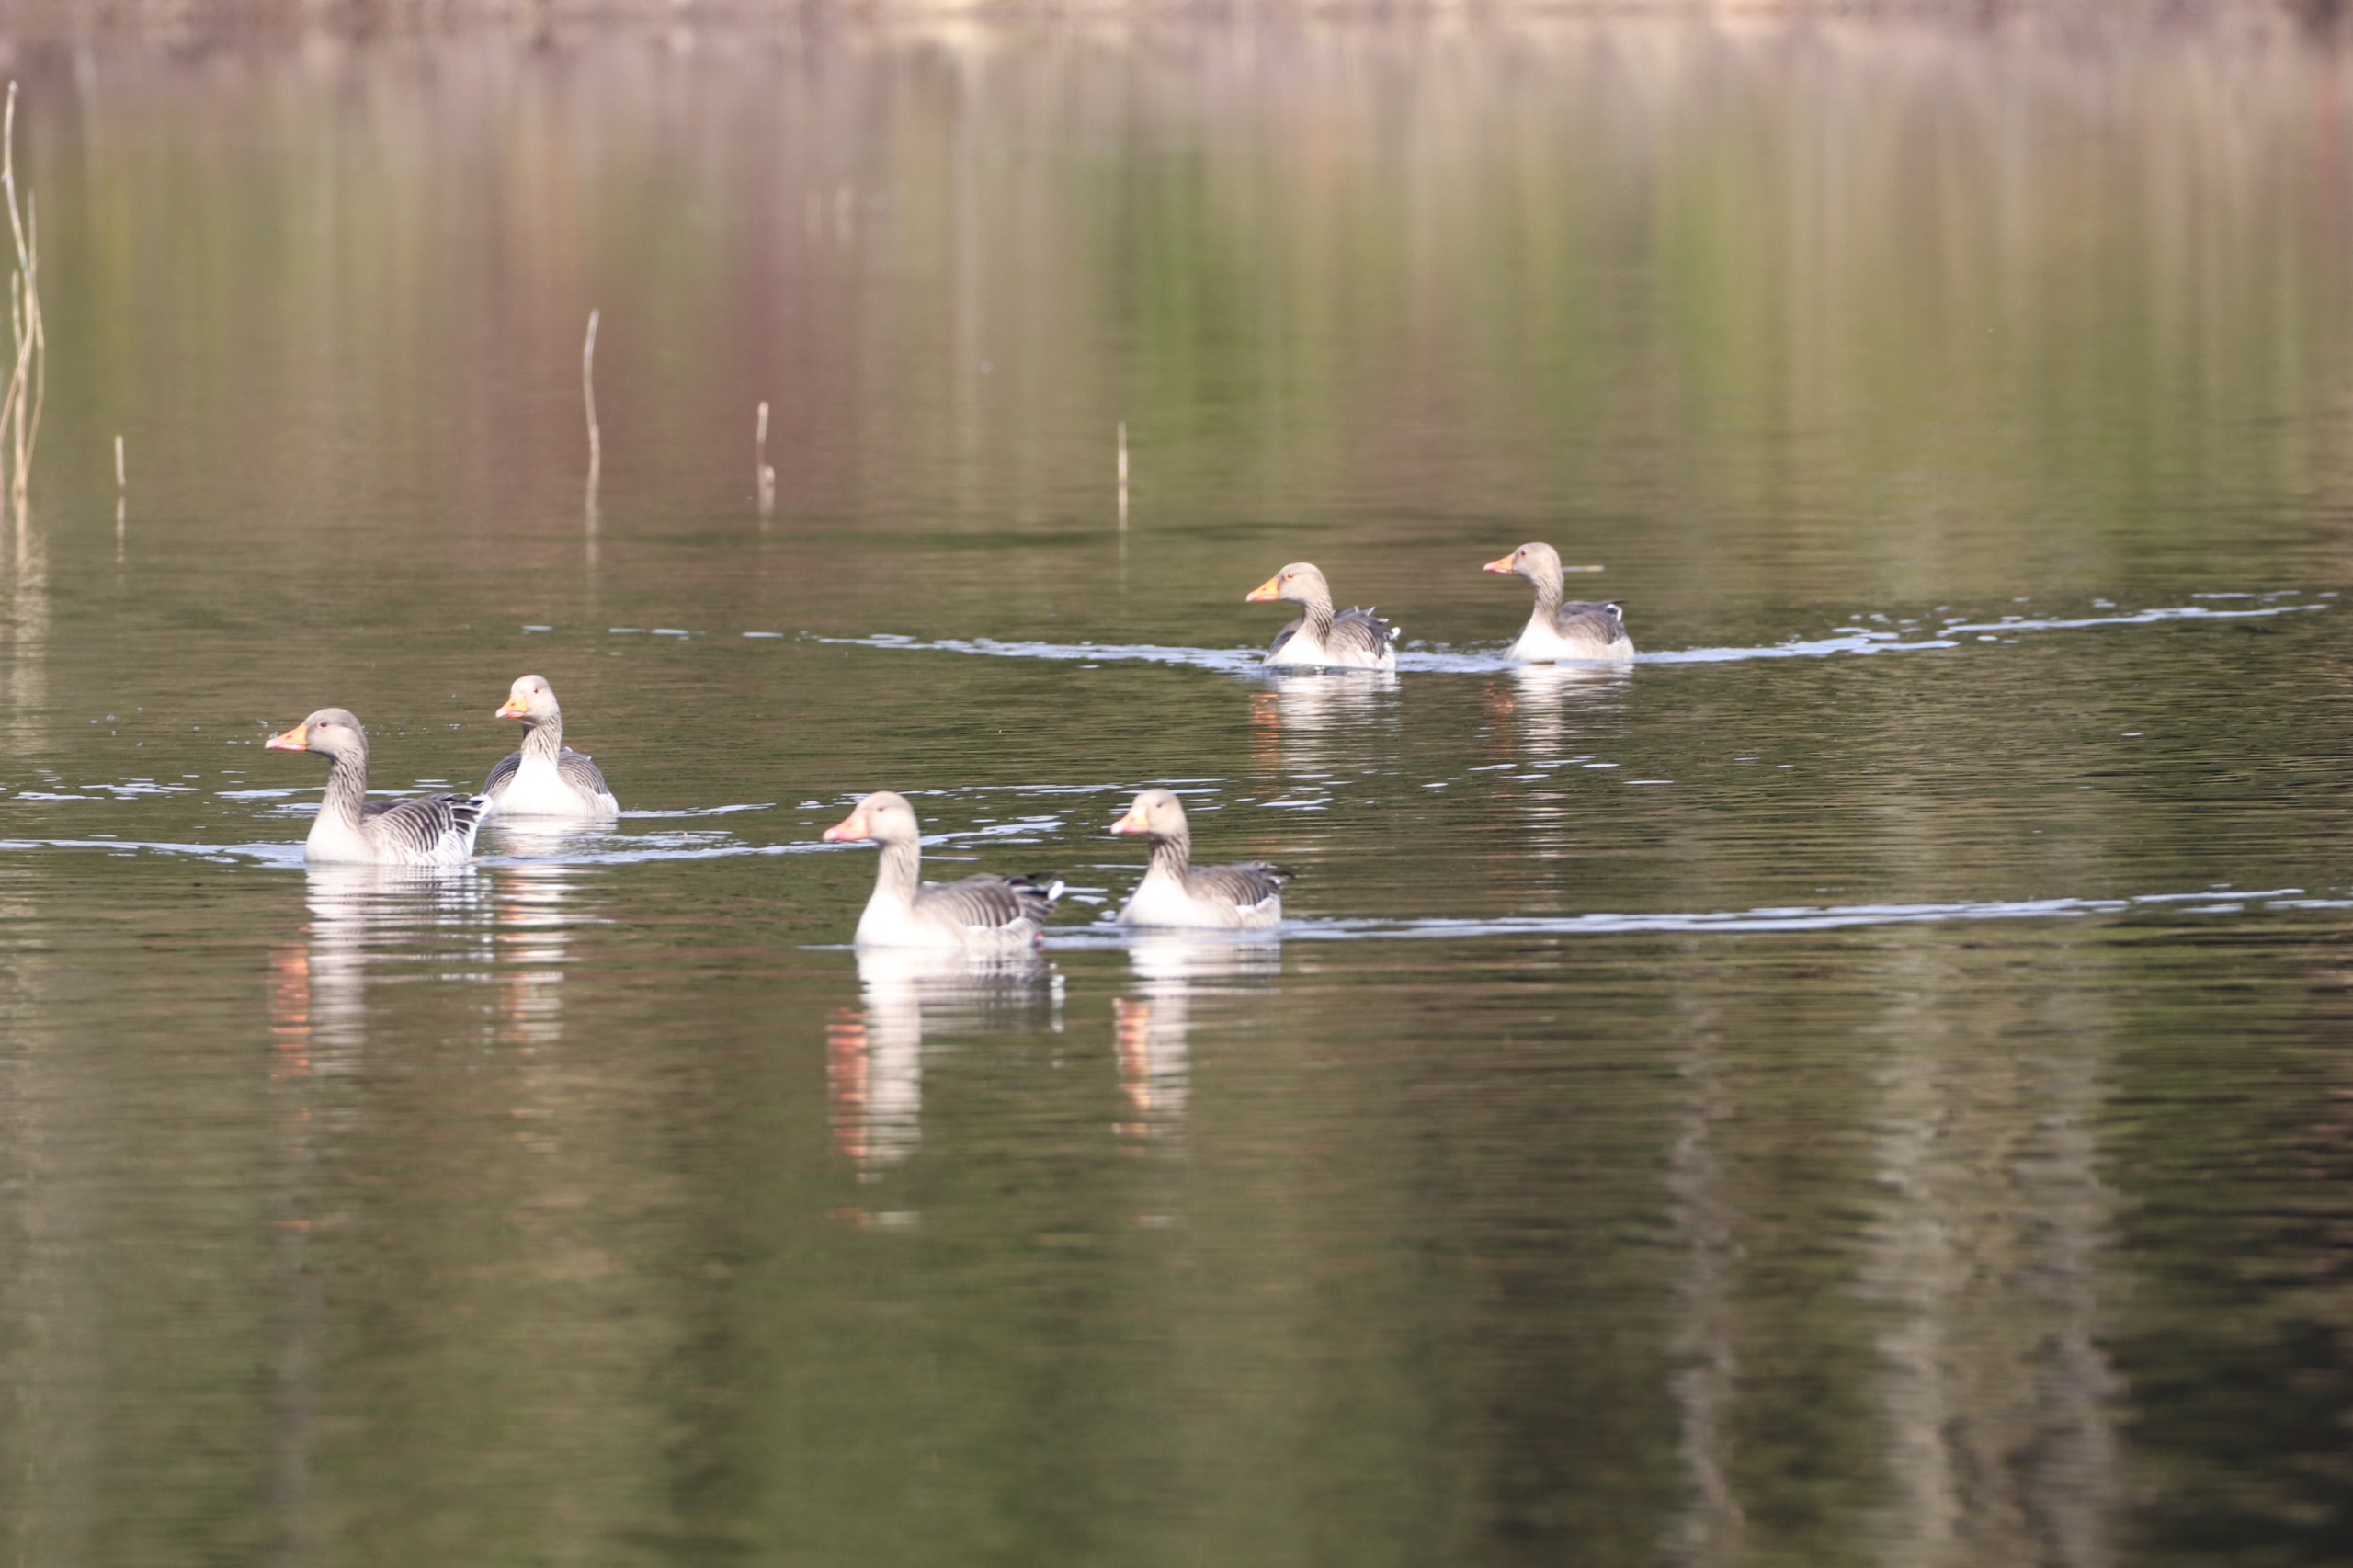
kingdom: Animalia
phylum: Chordata
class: Aves
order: Anseriformes
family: Anatidae
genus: Anser
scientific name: Anser anser
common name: Grågås
